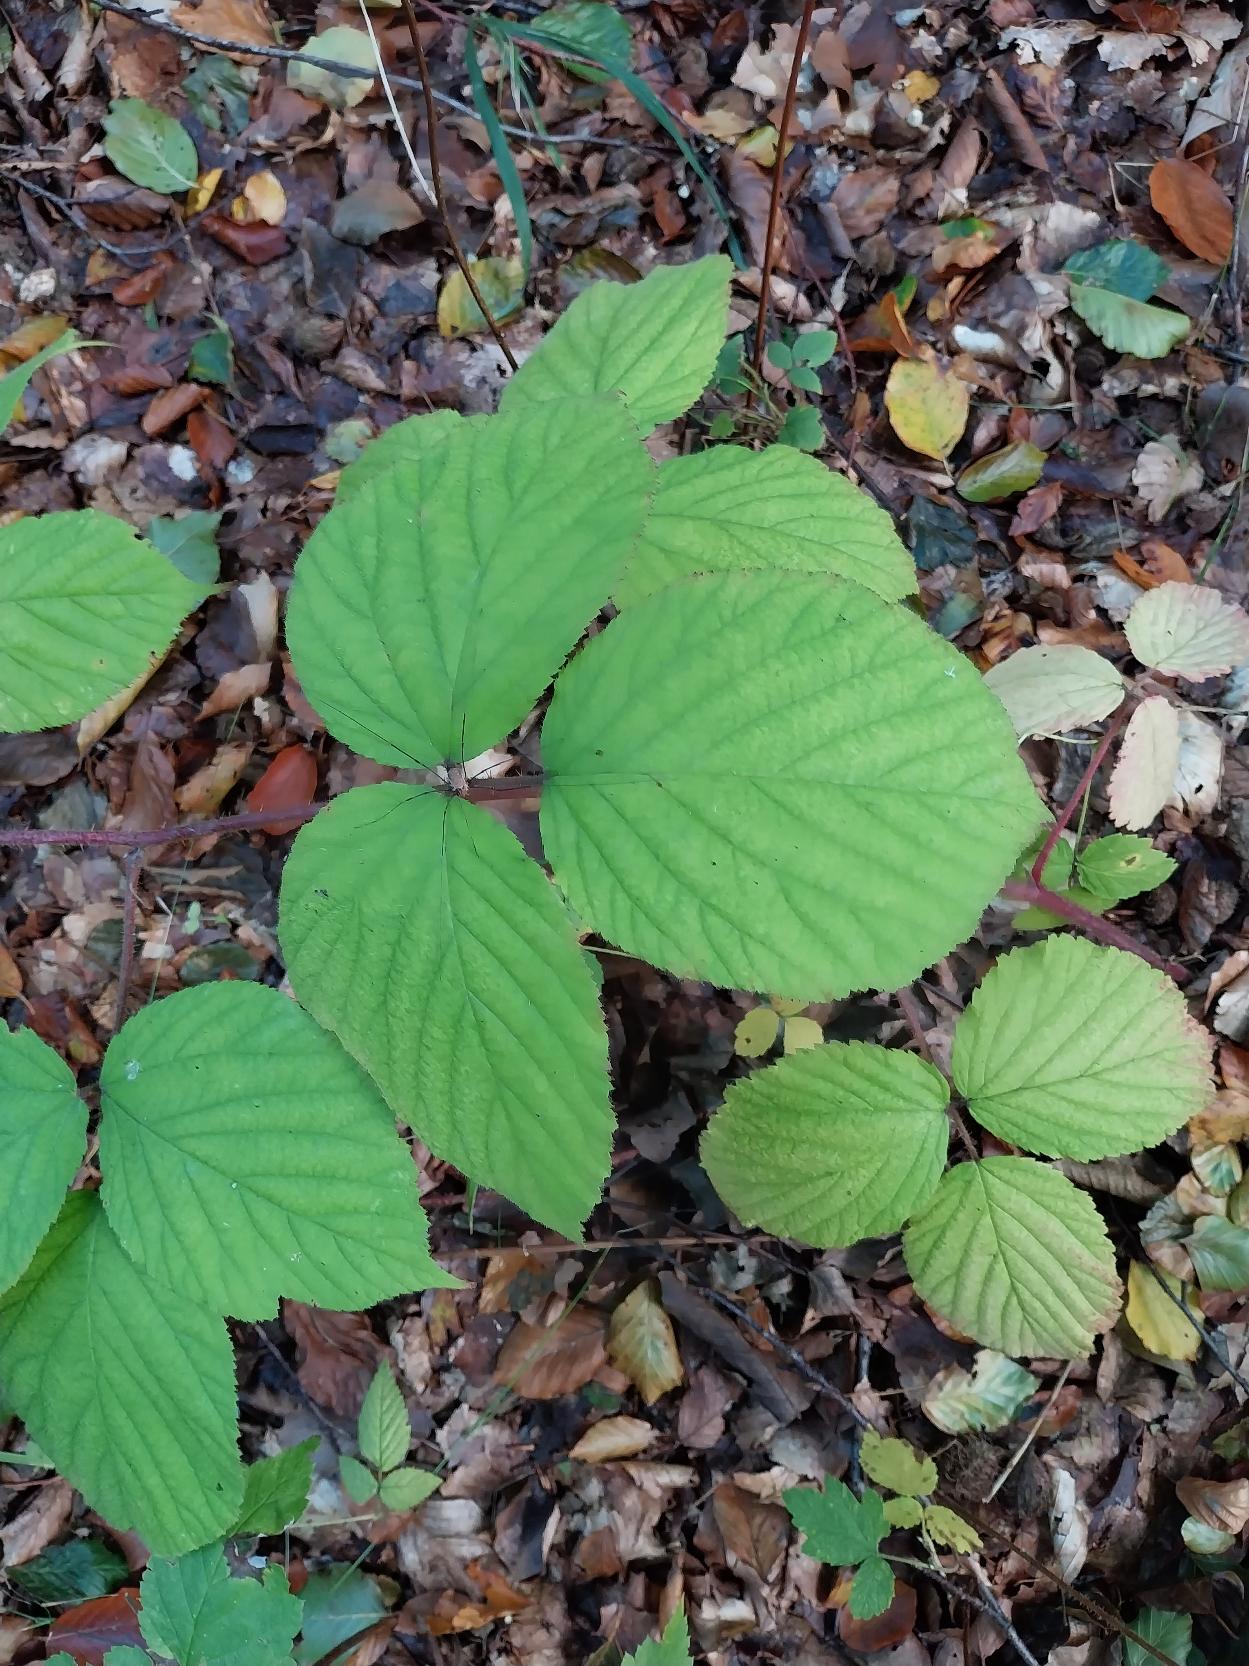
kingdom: Plantae
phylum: Tracheophyta
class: Magnoliopsida
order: Rosales
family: Rosaceae
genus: Rubus
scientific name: Rubus nigricans
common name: Trebladet brombær
